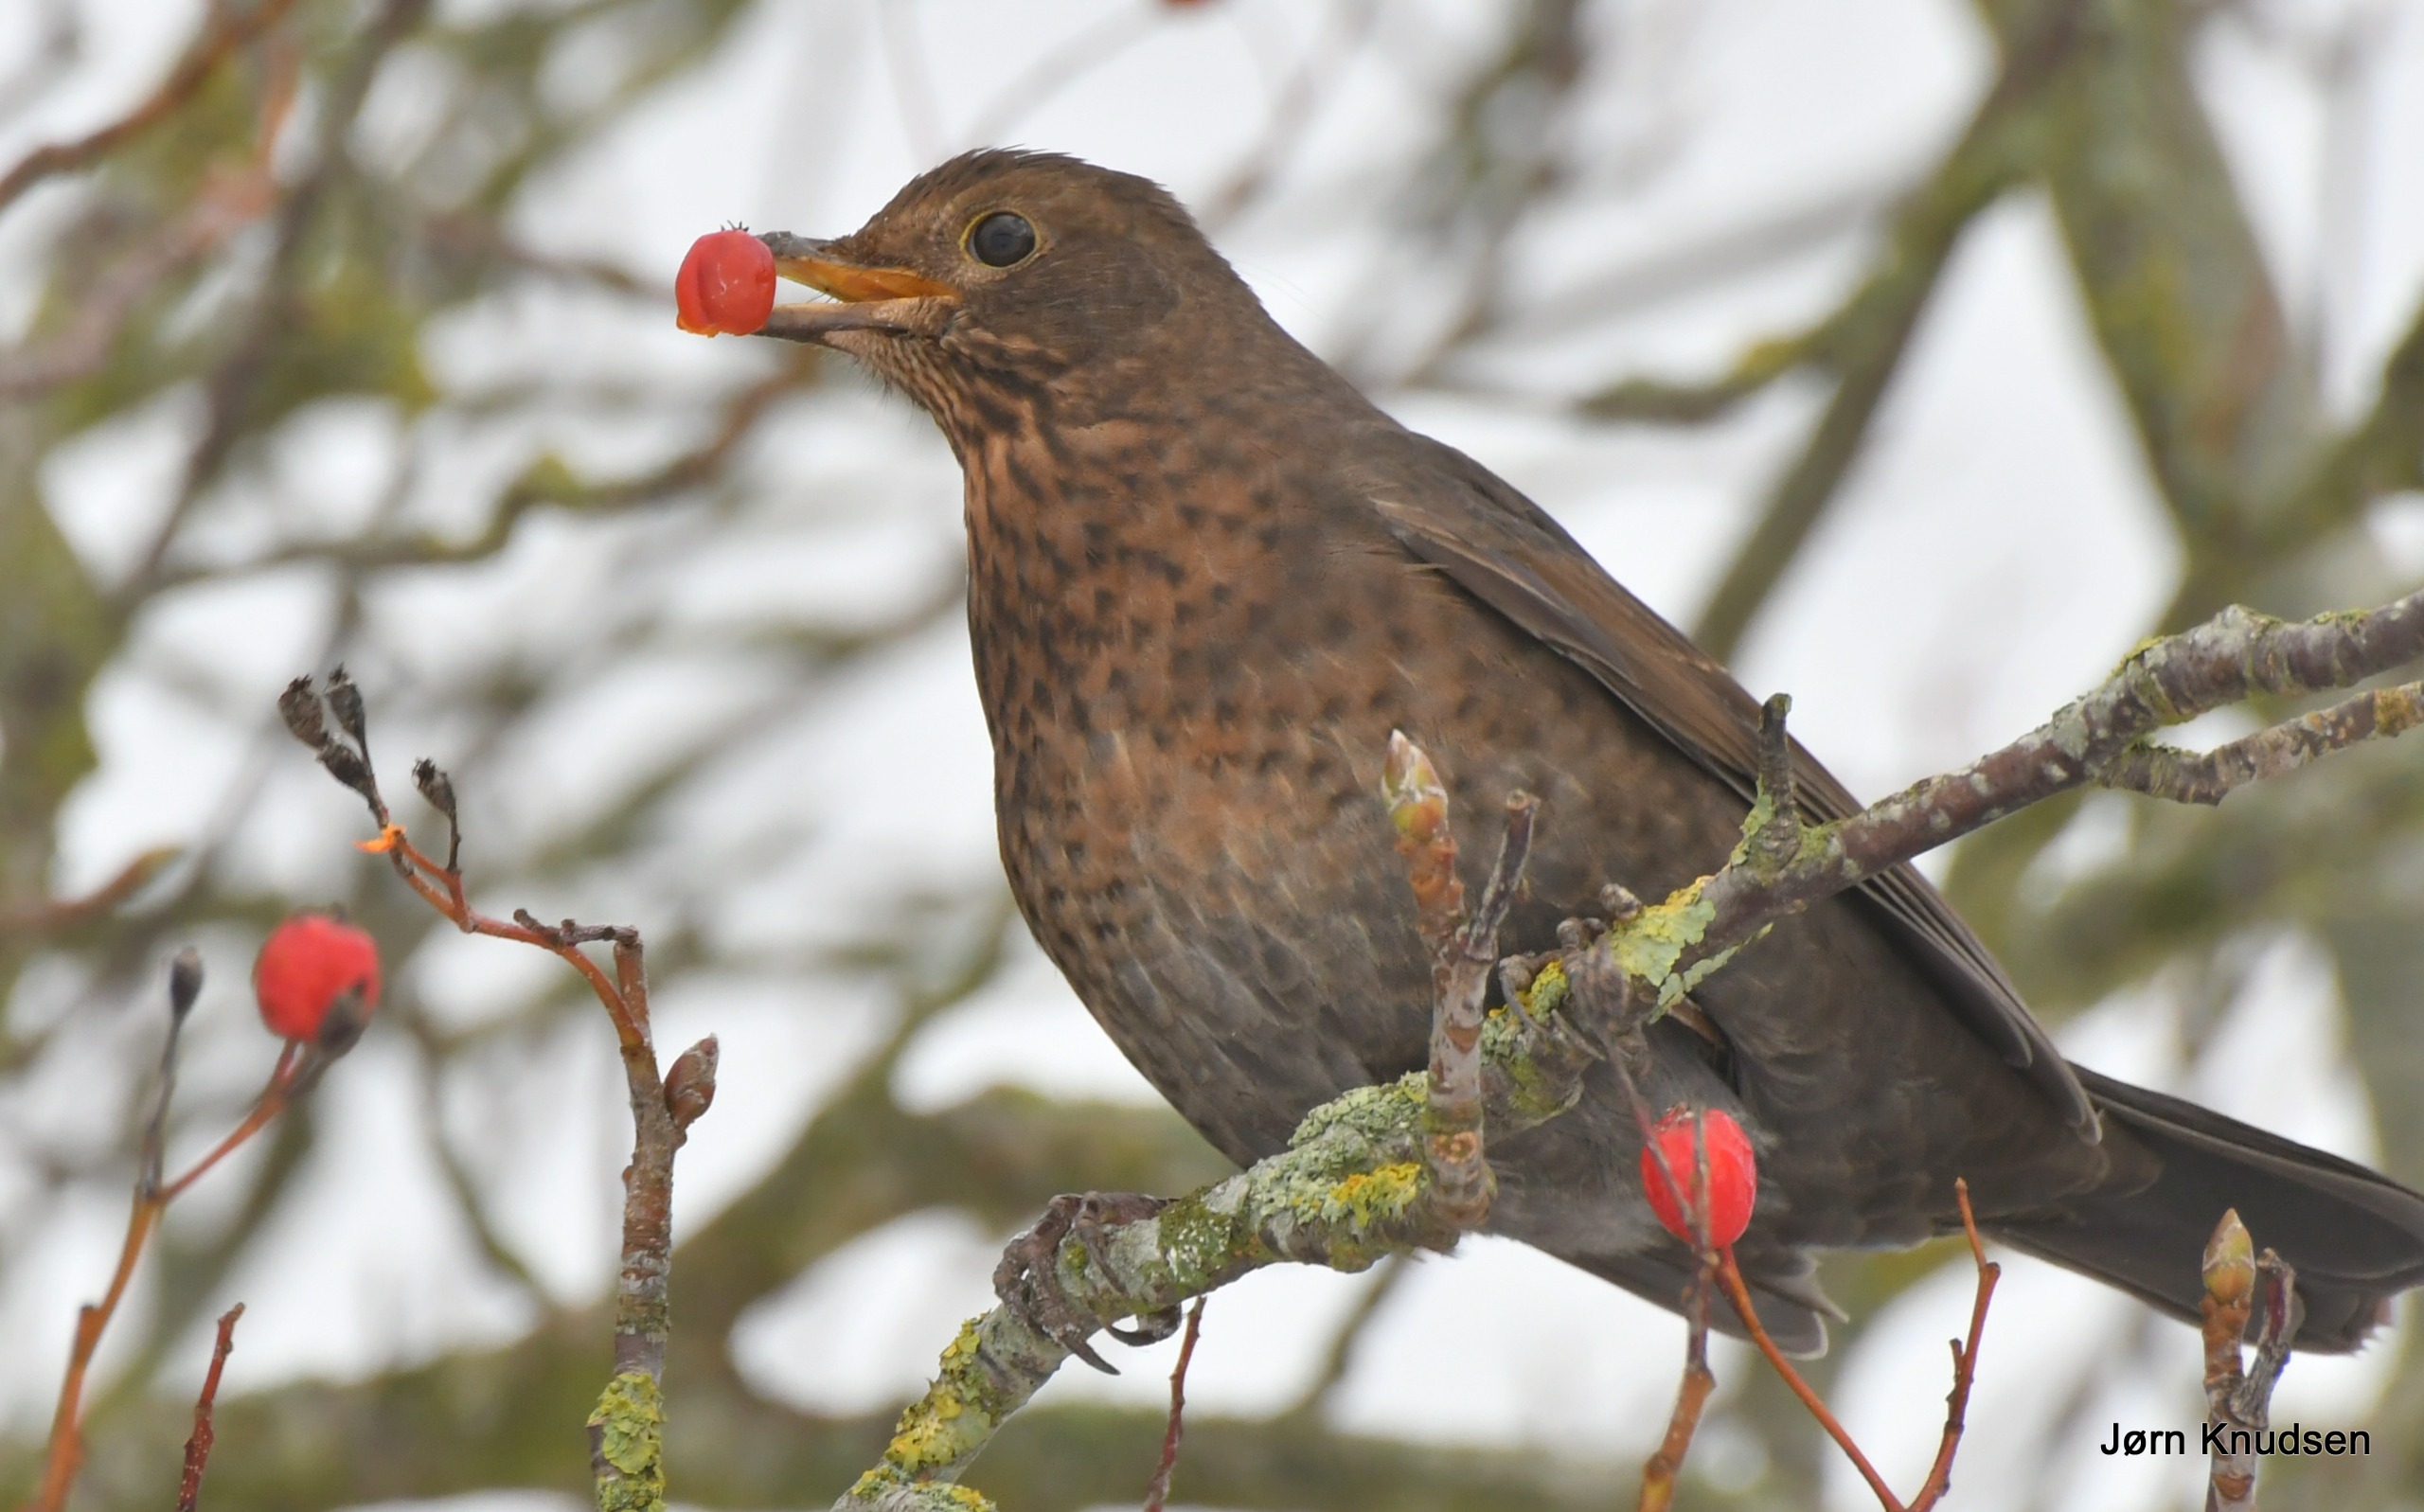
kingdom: Animalia
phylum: Chordata
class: Aves
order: Passeriformes
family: Turdidae
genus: Turdus
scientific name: Turdus merula
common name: Solsort
